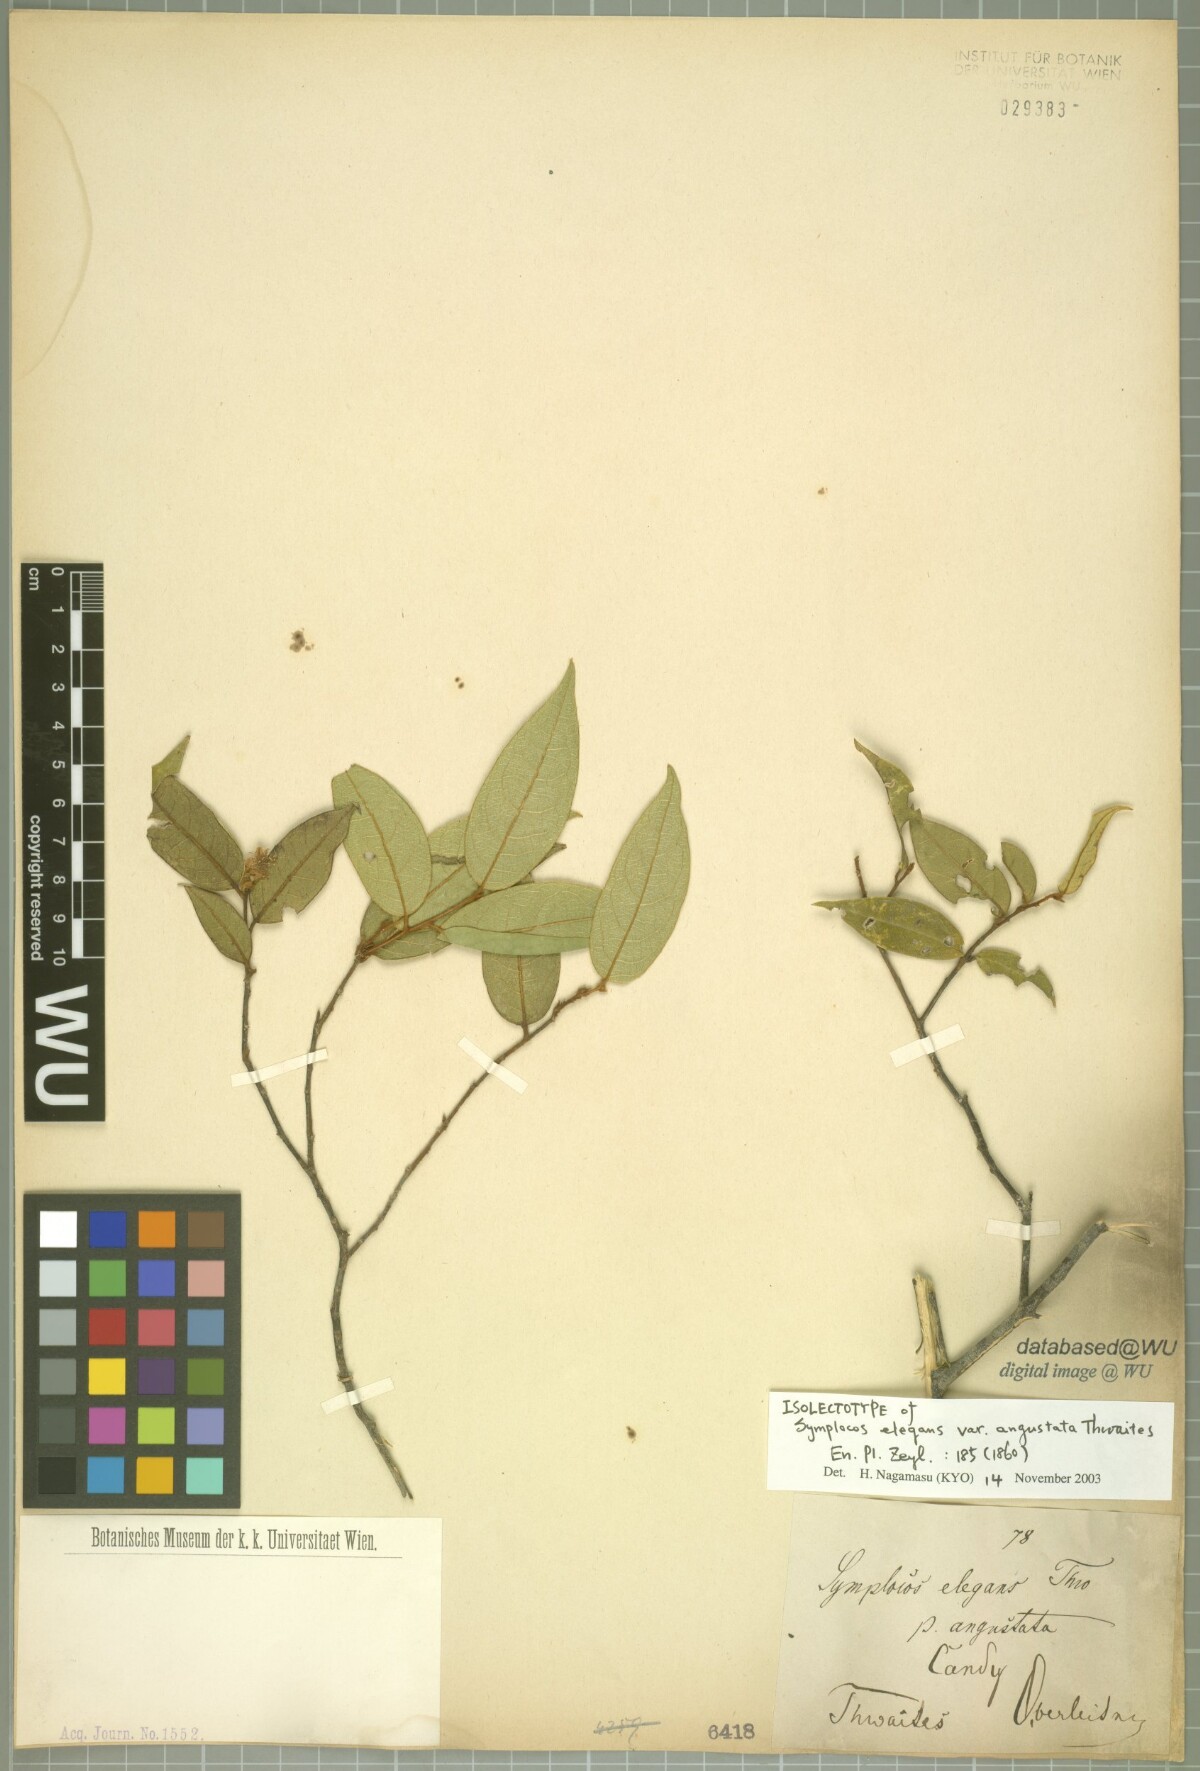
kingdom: Plantae
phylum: Tracheophyta
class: Magnoliopsida
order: Ericales
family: Symplocaceae
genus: Symplocos
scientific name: Symplocos elegans
